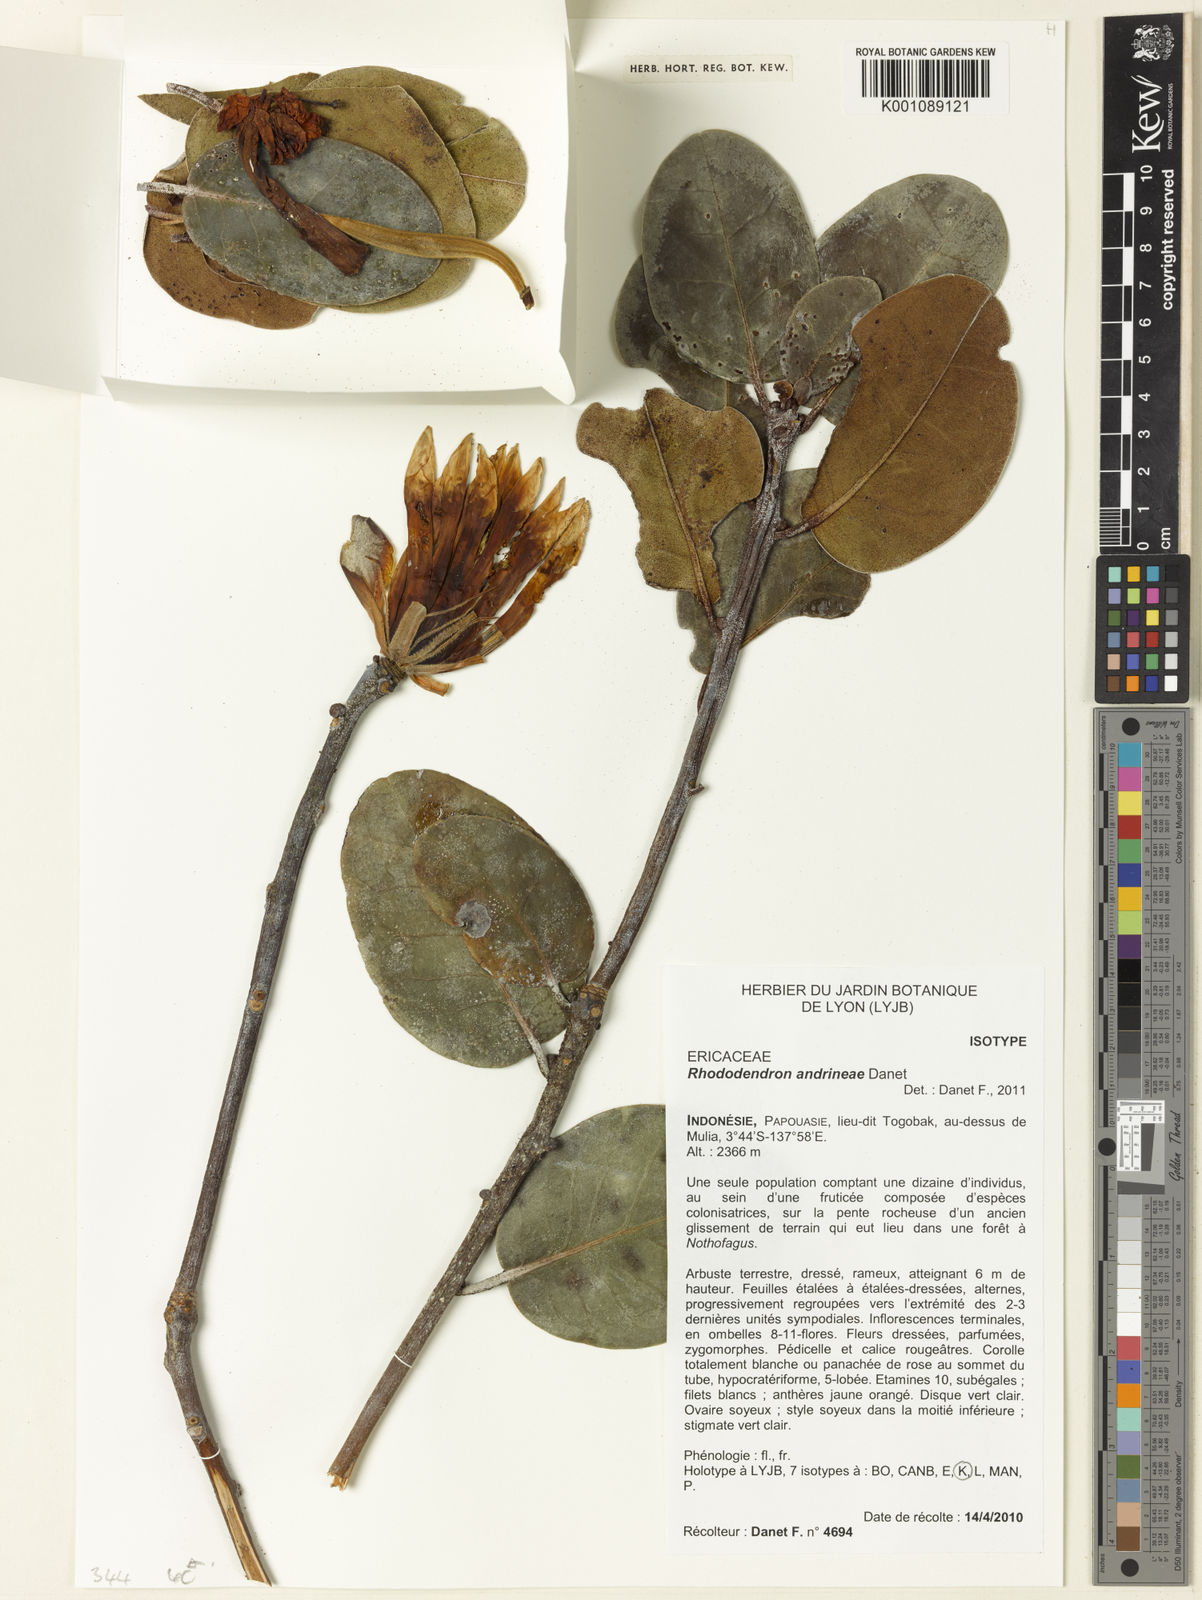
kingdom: Plantae
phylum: Tracheophyta
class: Magnoliopsida
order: Ericales
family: Ericaceae
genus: Rhododendron
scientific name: Rhododendron andrineae
